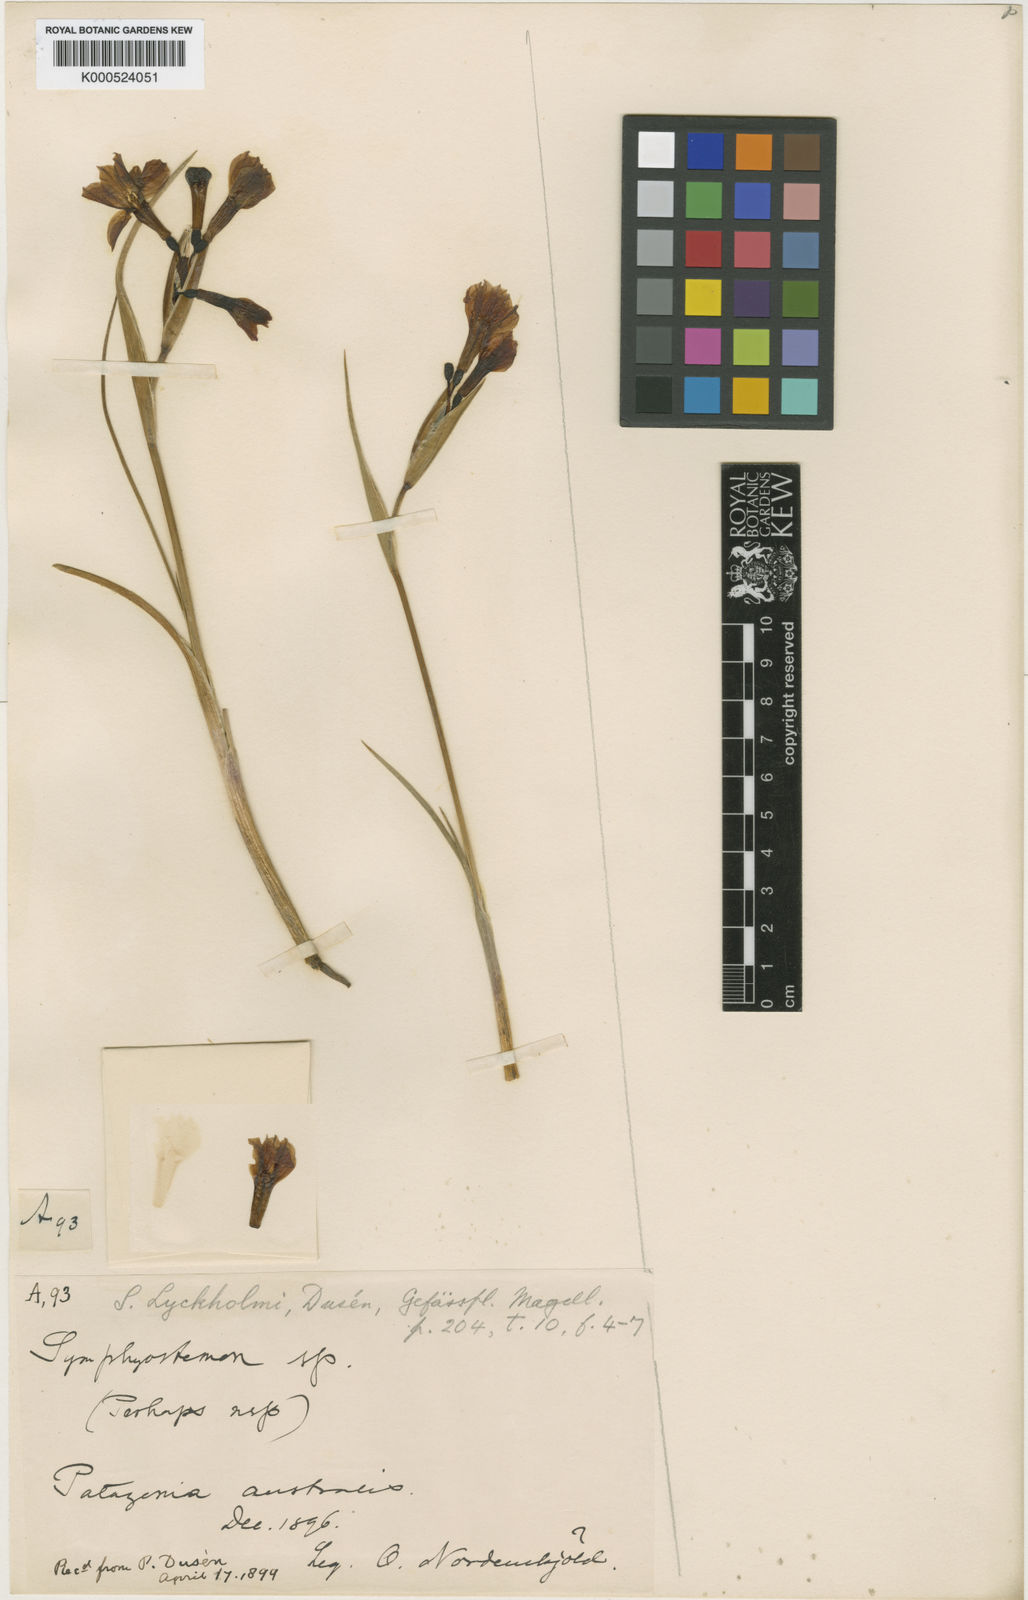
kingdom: Plantae
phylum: Tracheophyta
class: Liliopsida
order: Asparagales
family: Iridaceae
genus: Olsynium
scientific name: Olsynium
